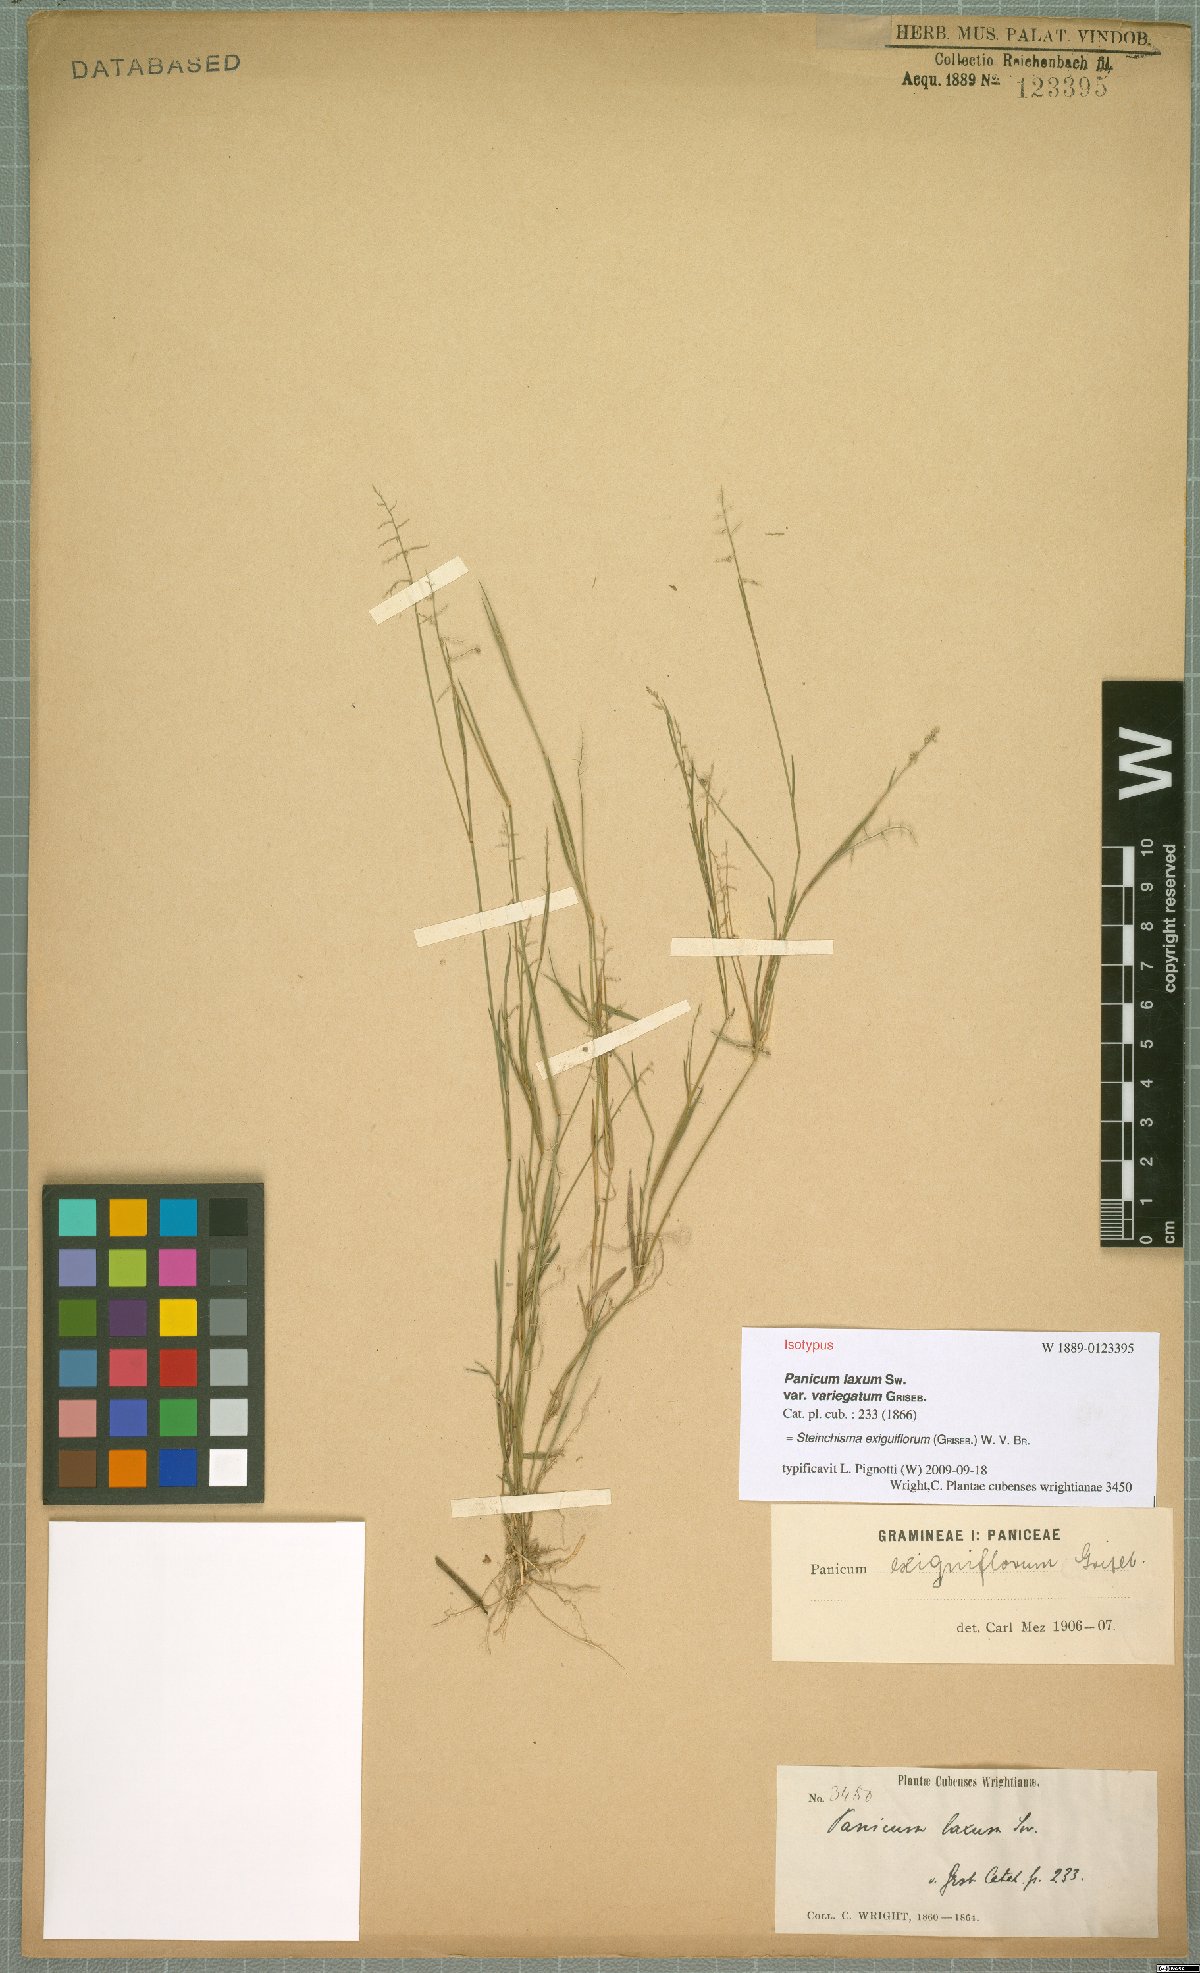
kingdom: Plantae
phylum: Tracheophyta
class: Liliopsida
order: Poales
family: Poaceae
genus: Steinchisma
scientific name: Steinchisma exiguiflorum
